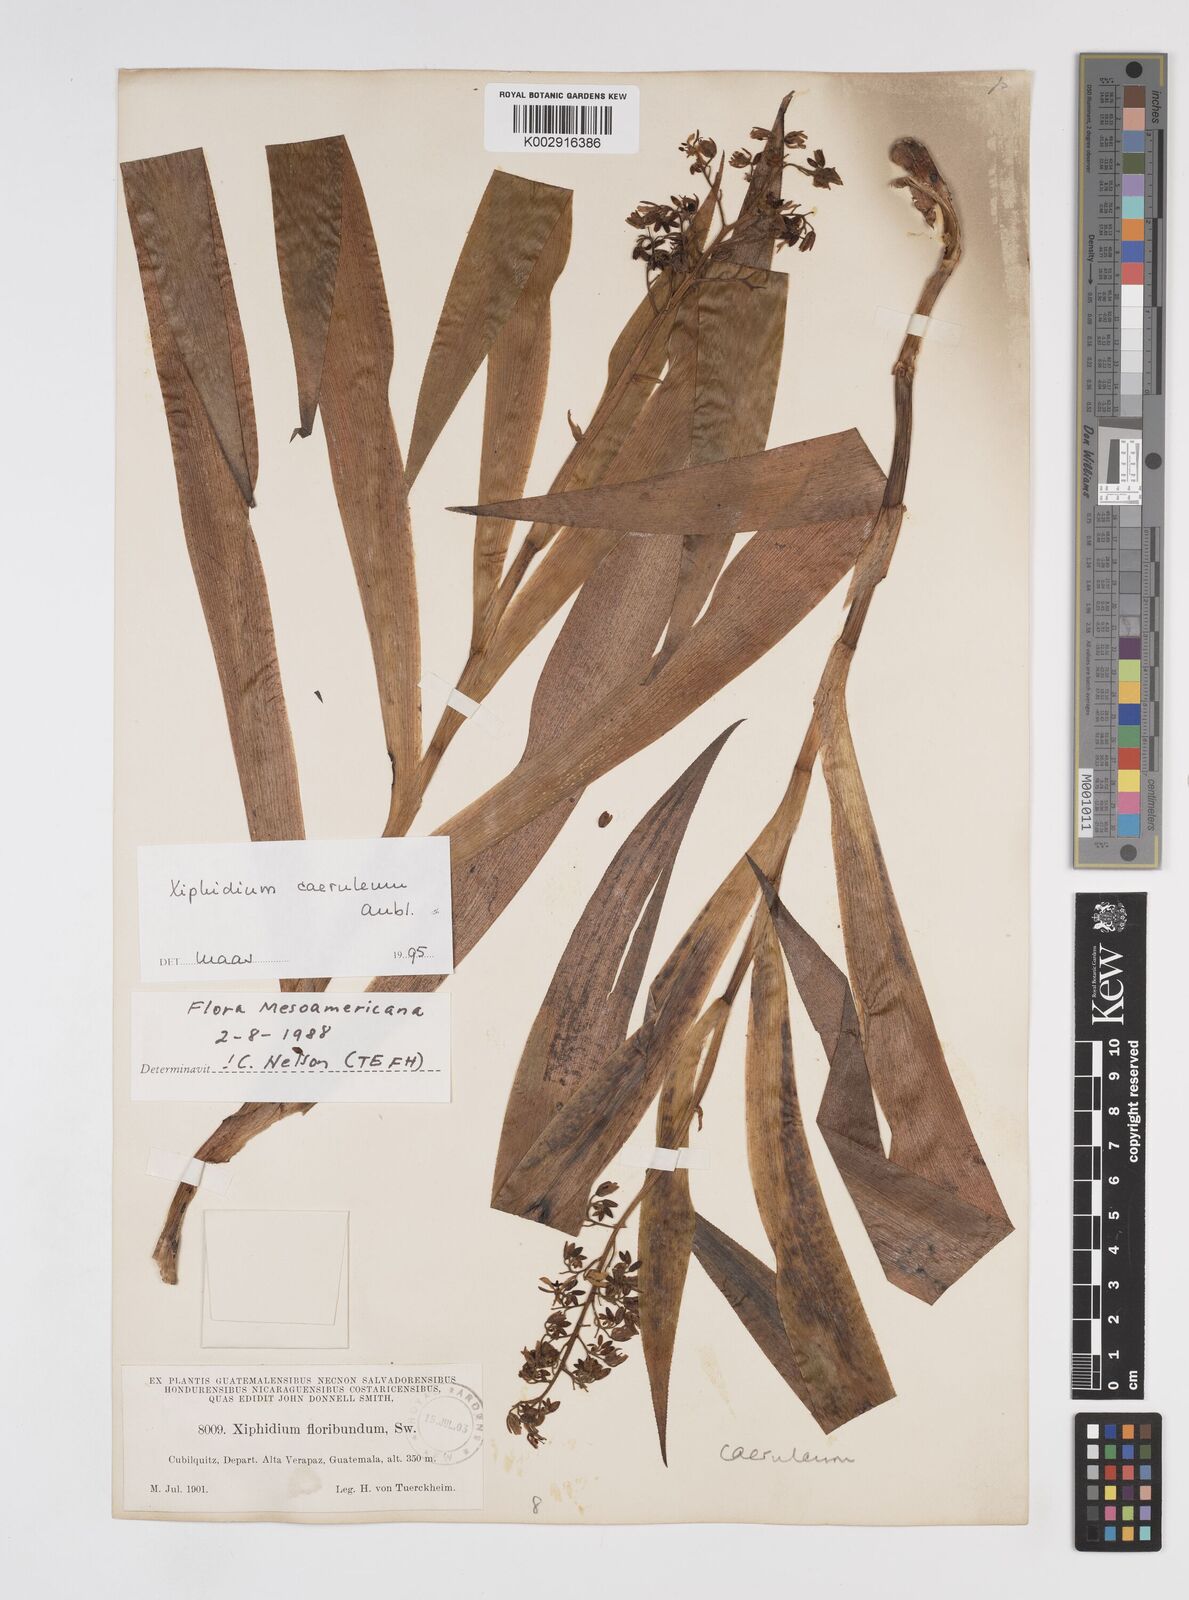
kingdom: Plantae
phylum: Tracheophyta
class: Liliopsida
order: Commelinales
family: Haemodoraceae
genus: Xiphidium
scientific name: Xiphidium caeruleum
